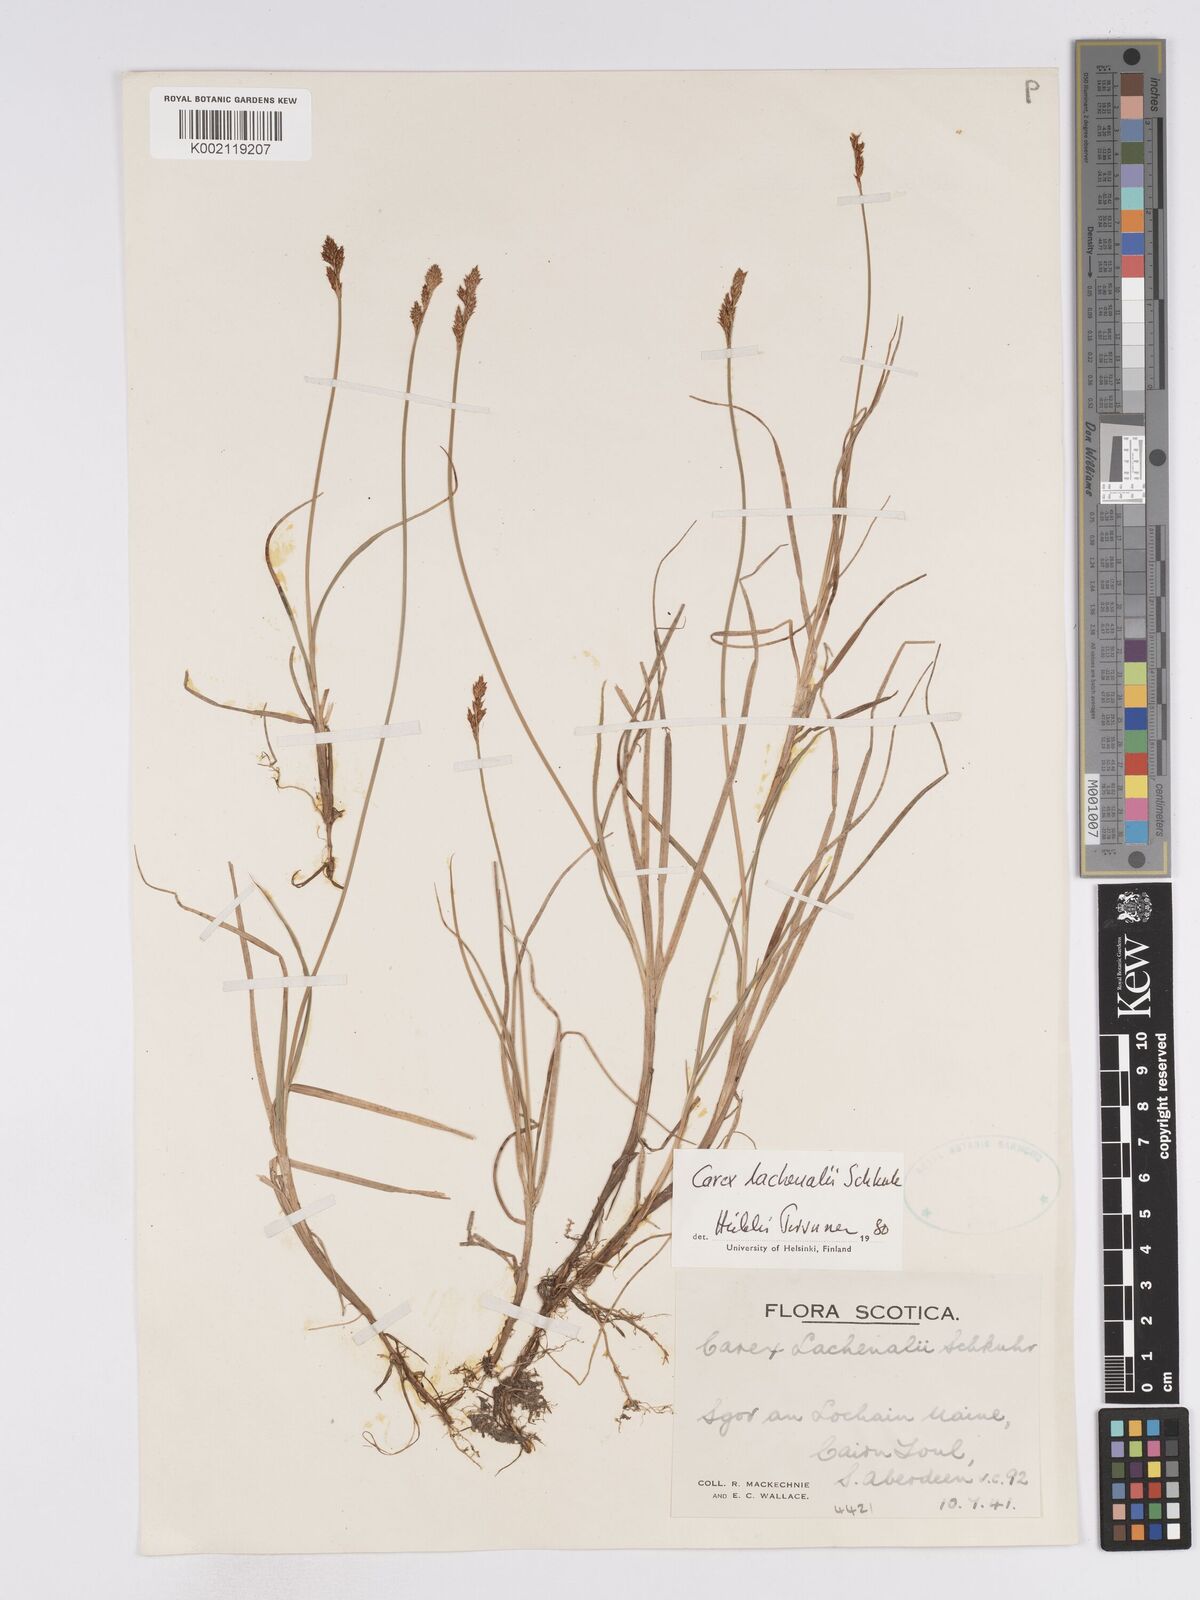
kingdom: Plantae
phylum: Tracheophyta
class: Liliopsida
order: Poales
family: Cyperaceae
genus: Carex
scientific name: Carex lachenalii
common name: Hare's-foot sedge
